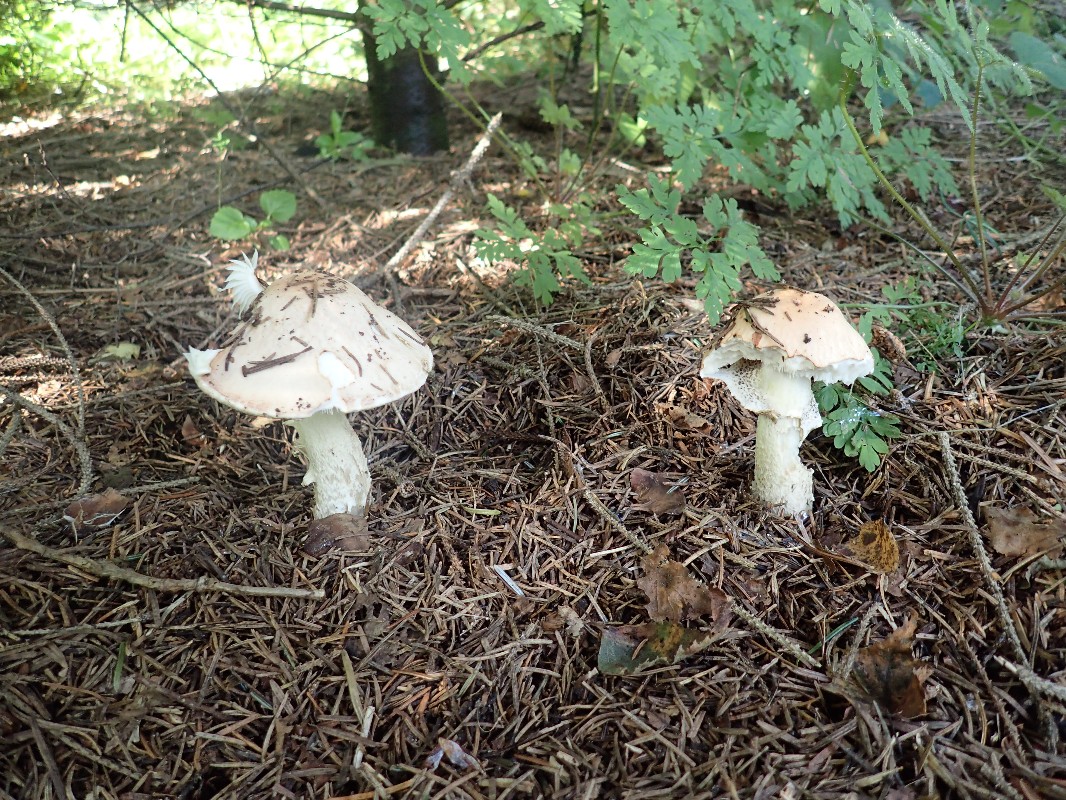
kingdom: Fungi
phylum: Basidiomycota
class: Agaricomycetes
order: Agaricales
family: Amanitaceae
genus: Limacellopsis
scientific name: Limacellopsis guttata
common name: tåre-snekkehat
